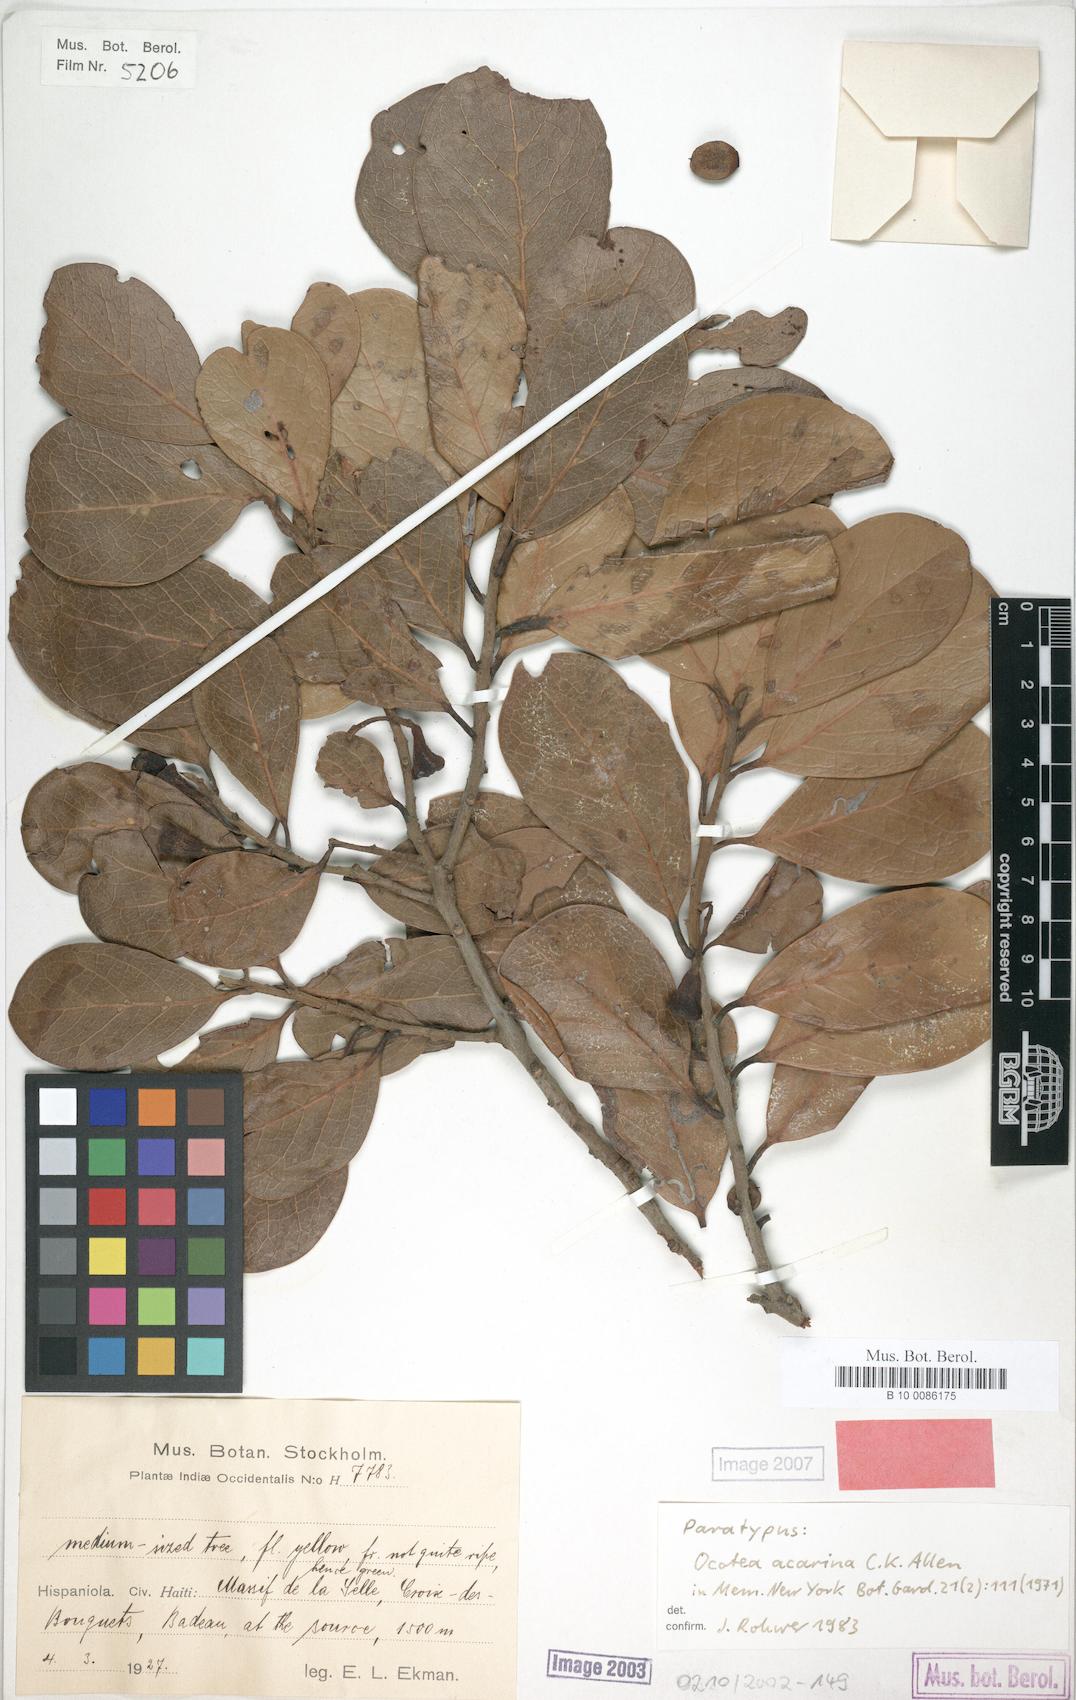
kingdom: Plantae
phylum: Tracheophyta
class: Magnoliopsida
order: Laurales
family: Lauraceae
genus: Ocotea
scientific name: Ocotea acarina
